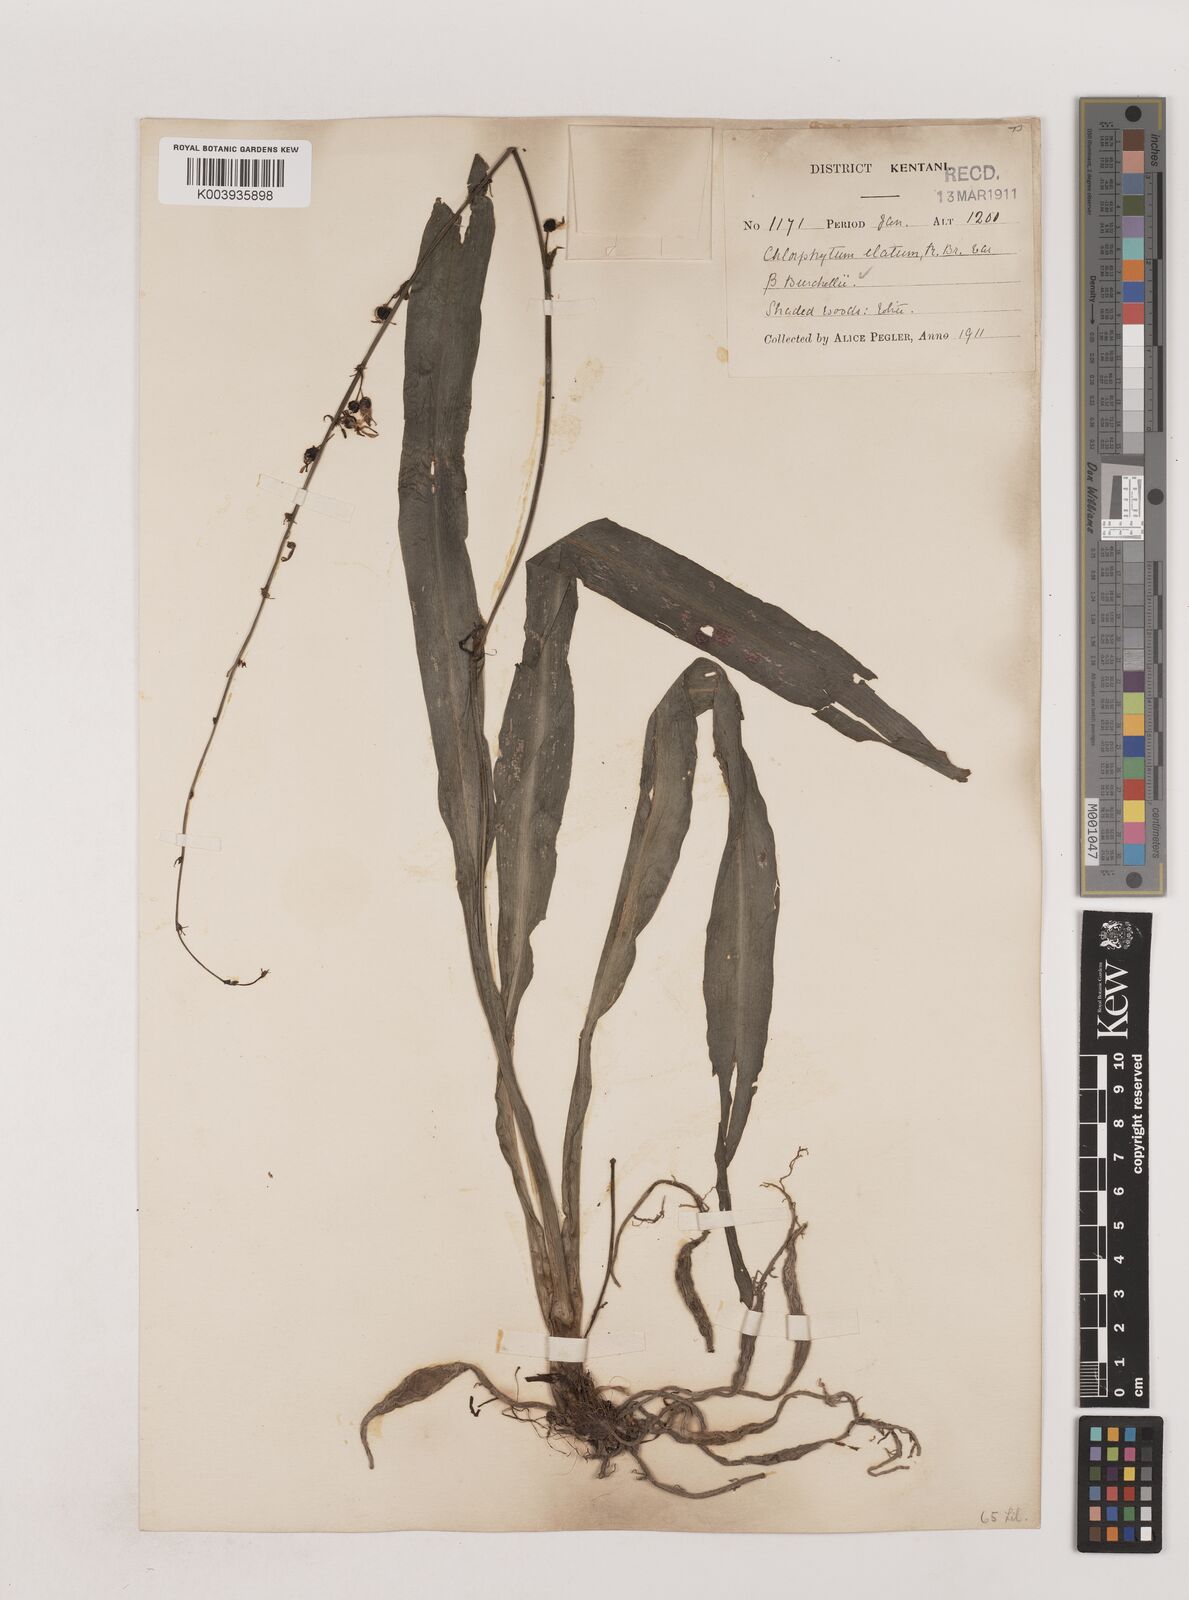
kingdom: Plantae
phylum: Tracheophyta
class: Liliopsida
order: Asparagales
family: Asparagaceae
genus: Chlorophytum
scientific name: Chlorophytum comosum
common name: Spider plant
